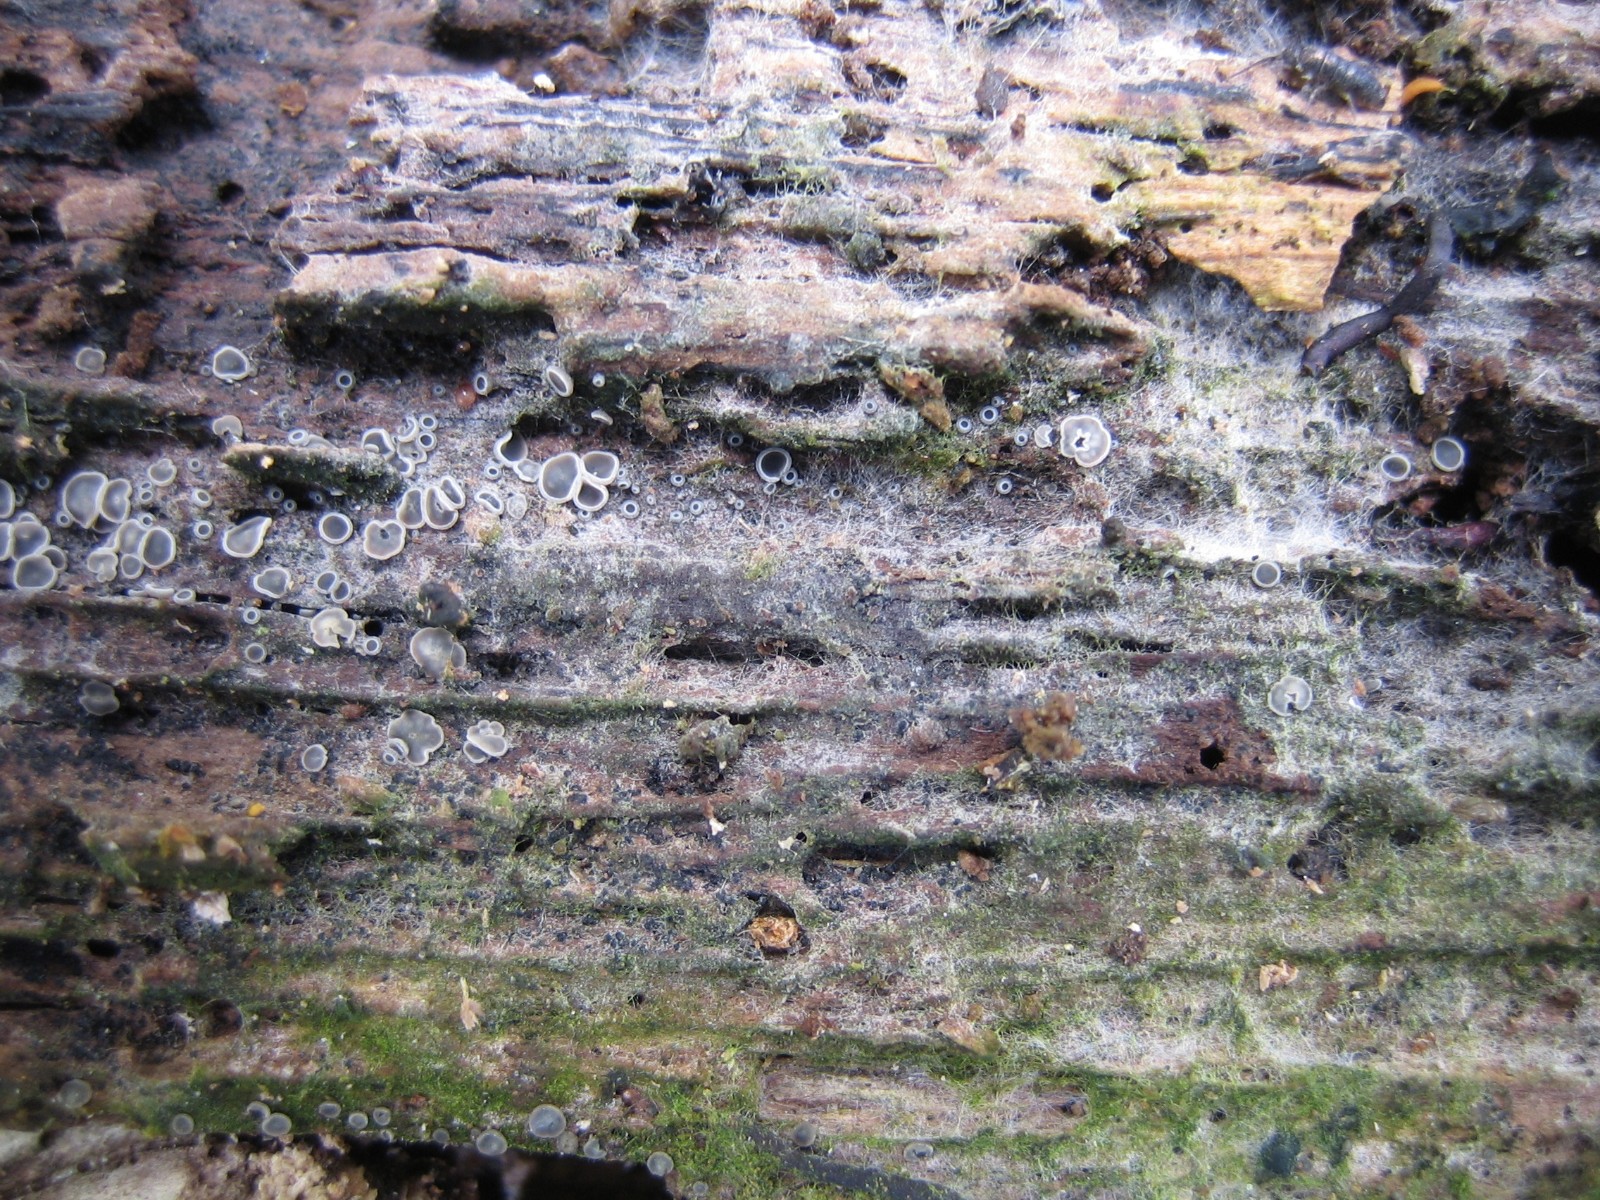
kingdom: Fungi
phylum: Ascomycota
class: Leotiomycetes
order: Helotiales
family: Mollisiaceae
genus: Mollisia
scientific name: Mollisia
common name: gråskive
